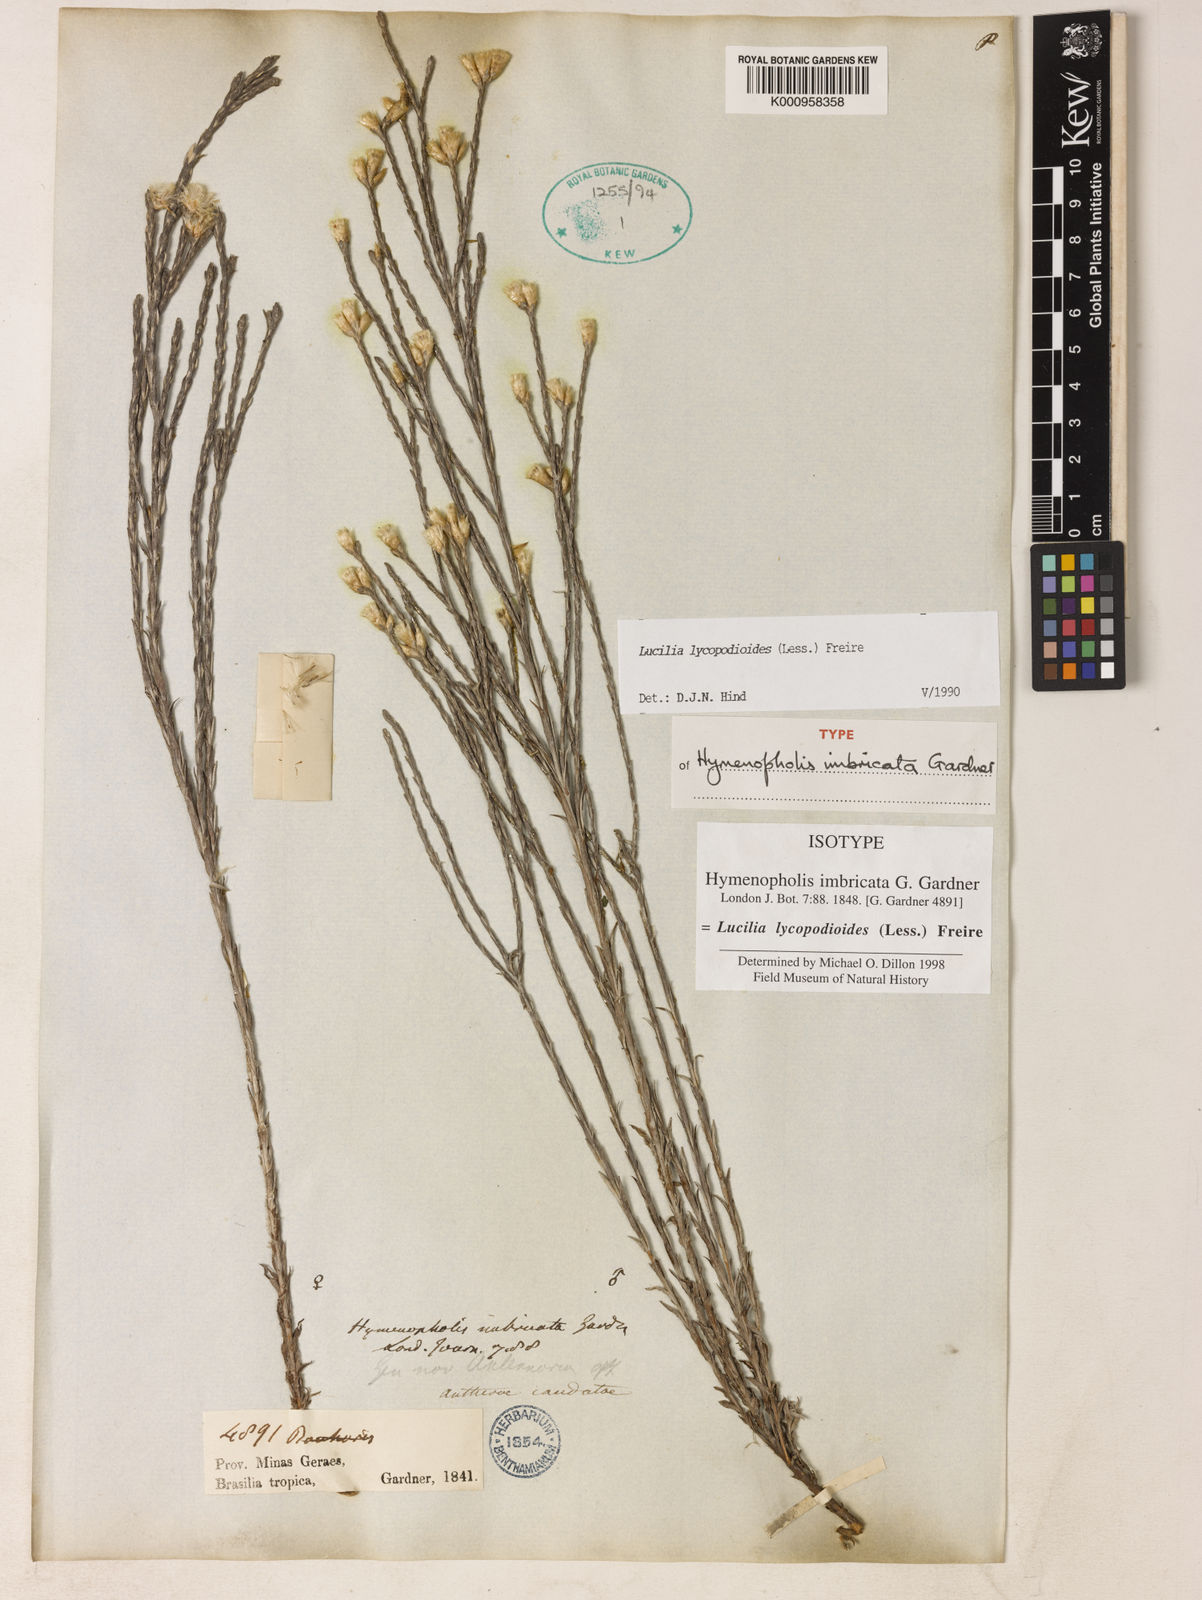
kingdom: Plantae
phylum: Tracheophyta
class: Magnoliopsida
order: Asterales
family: Asteraceae
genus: Lucilia
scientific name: Lucilia lycopodioides
